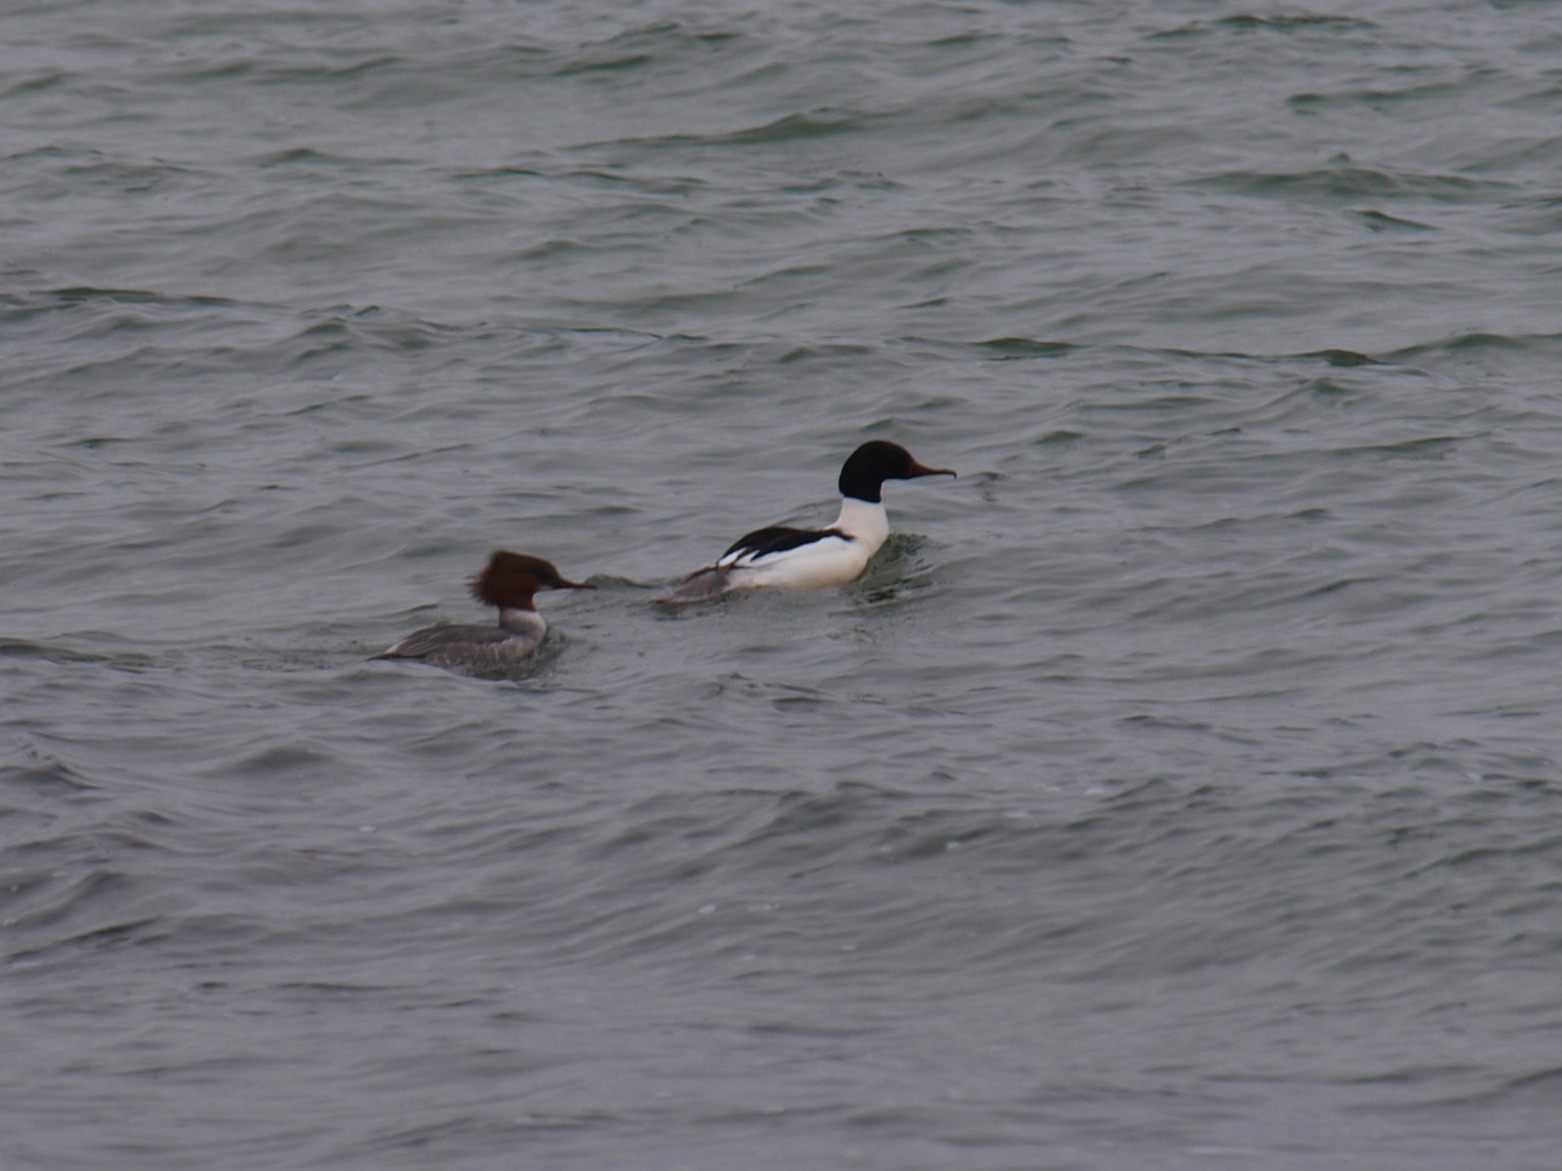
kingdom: Animalia
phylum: Chordata
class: Aves
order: Anseriformes
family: Anatidae
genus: Mergus
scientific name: Mergus merganser
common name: Stor skallesluger
